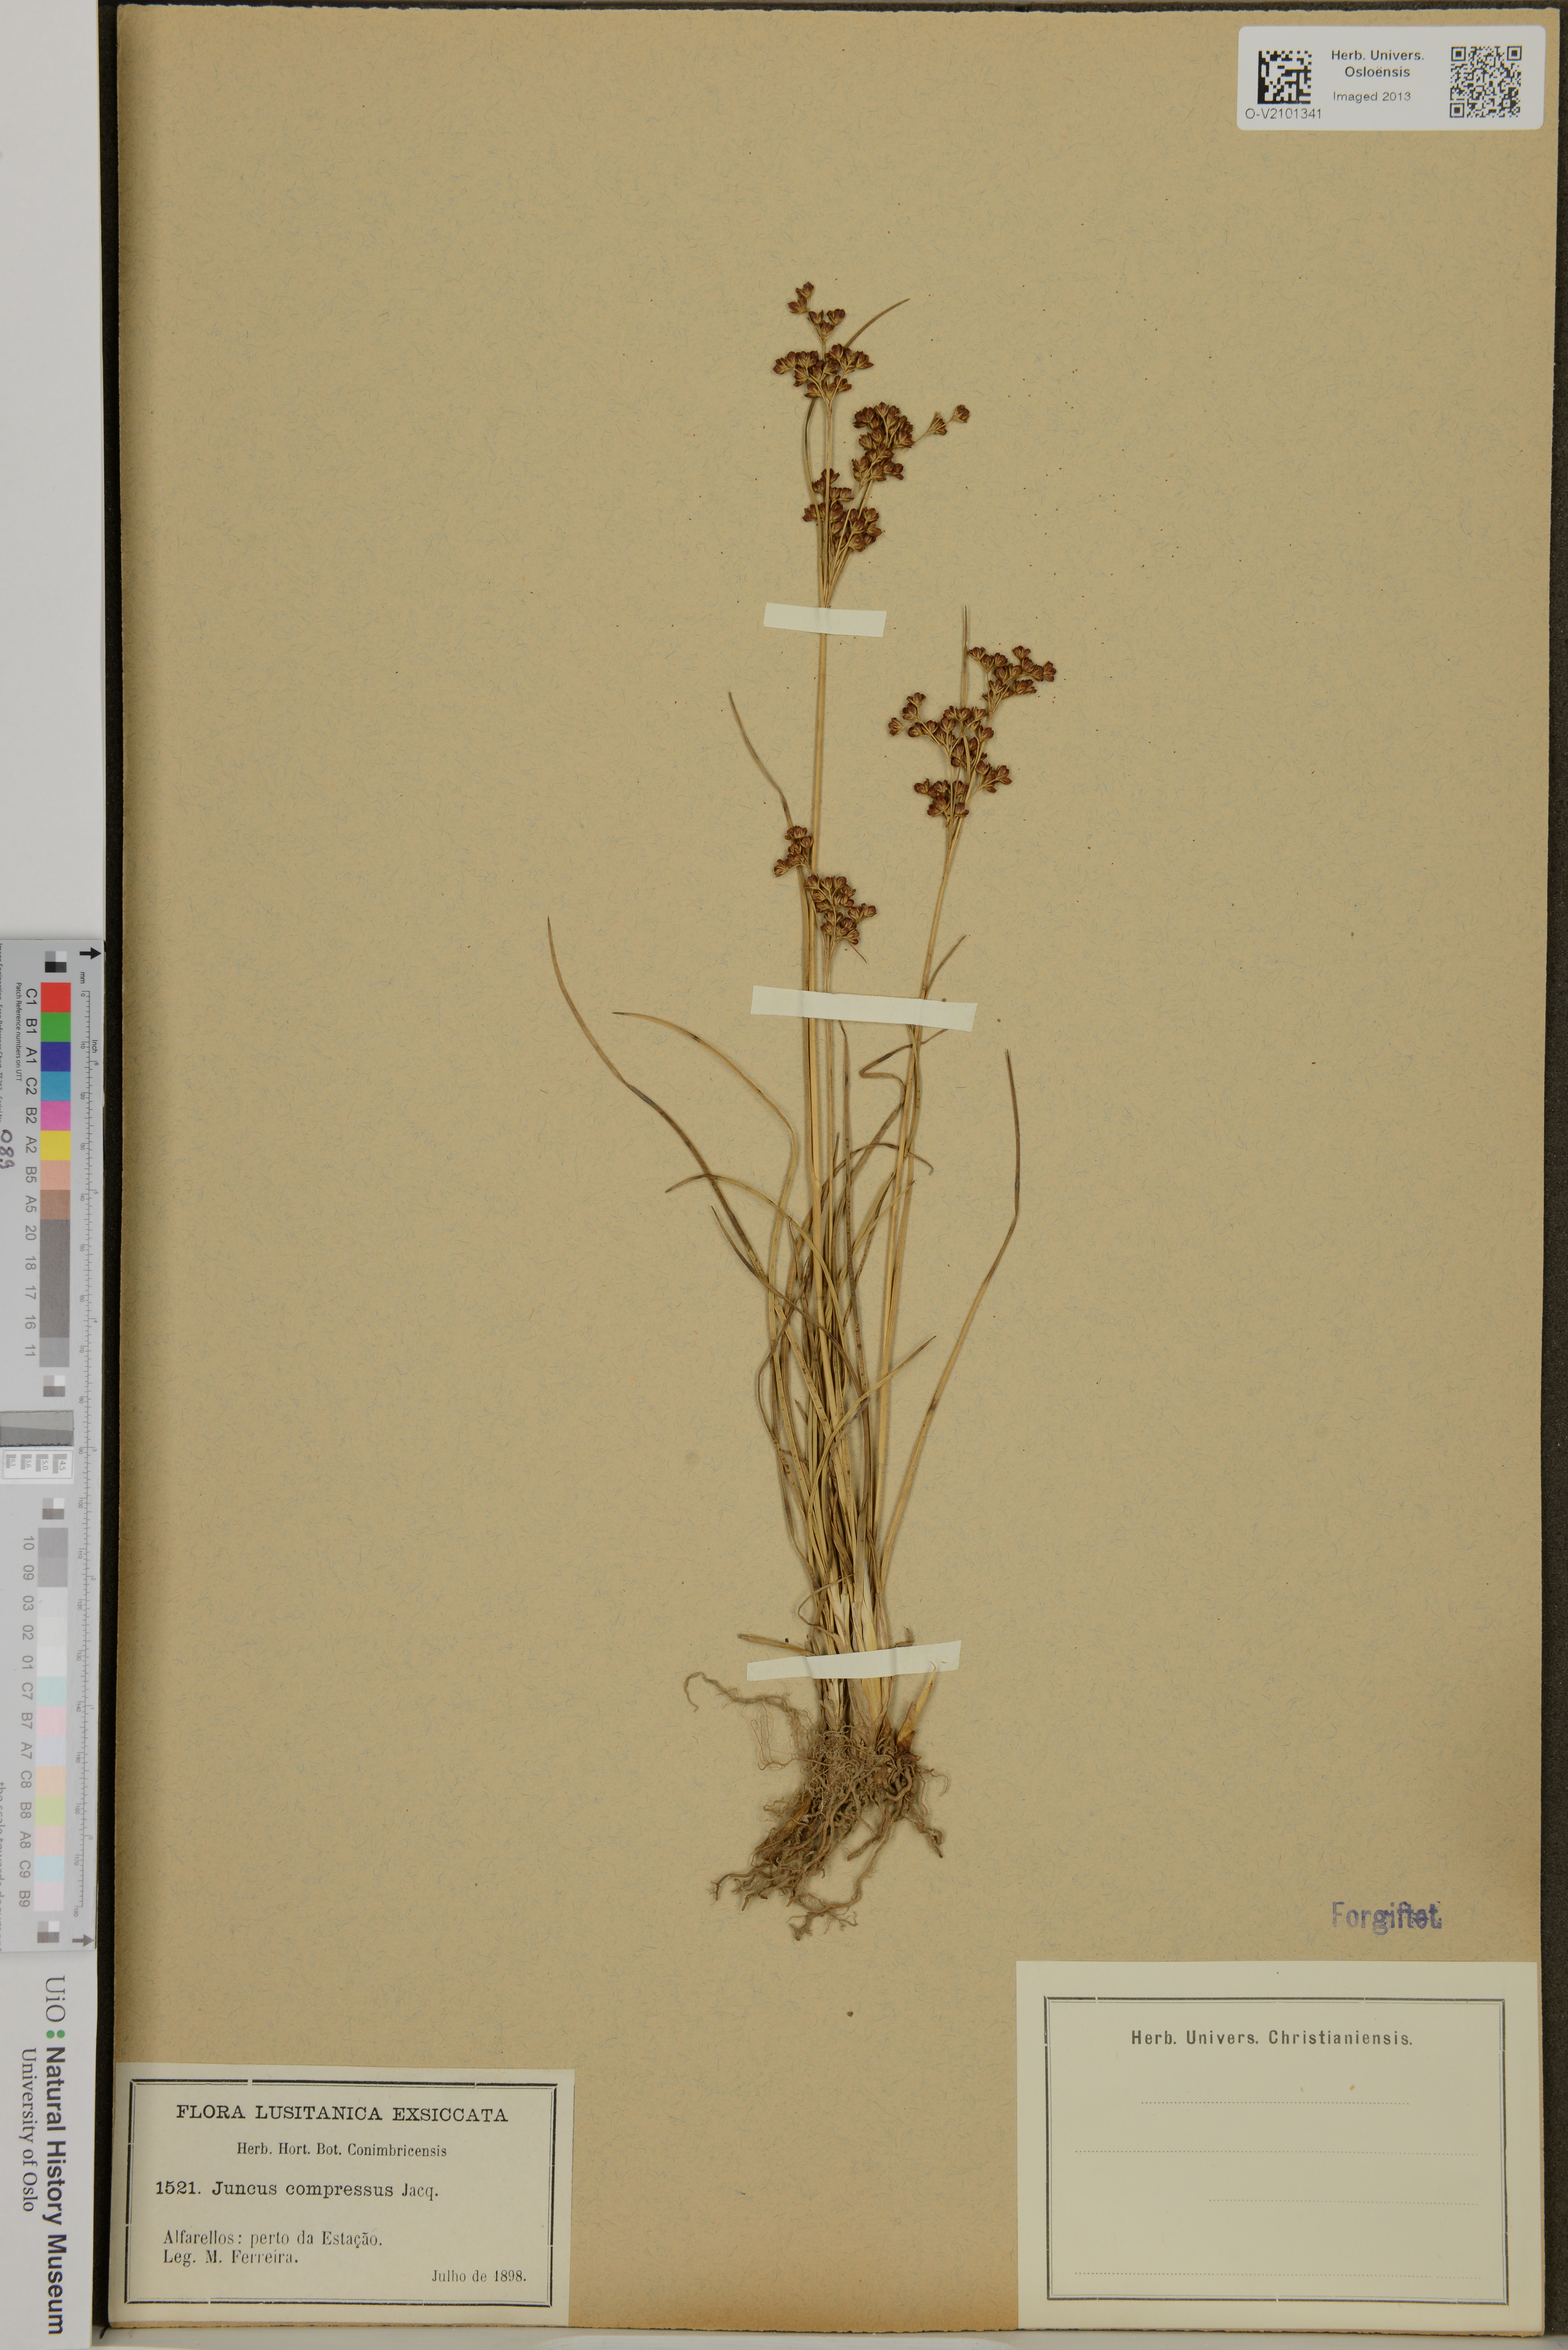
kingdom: Plantae
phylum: Tracheophyta
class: Liliopsida
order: Poales
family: Juncaceae
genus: Juncus
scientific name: Juncus compressus
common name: Round-fruited rush
